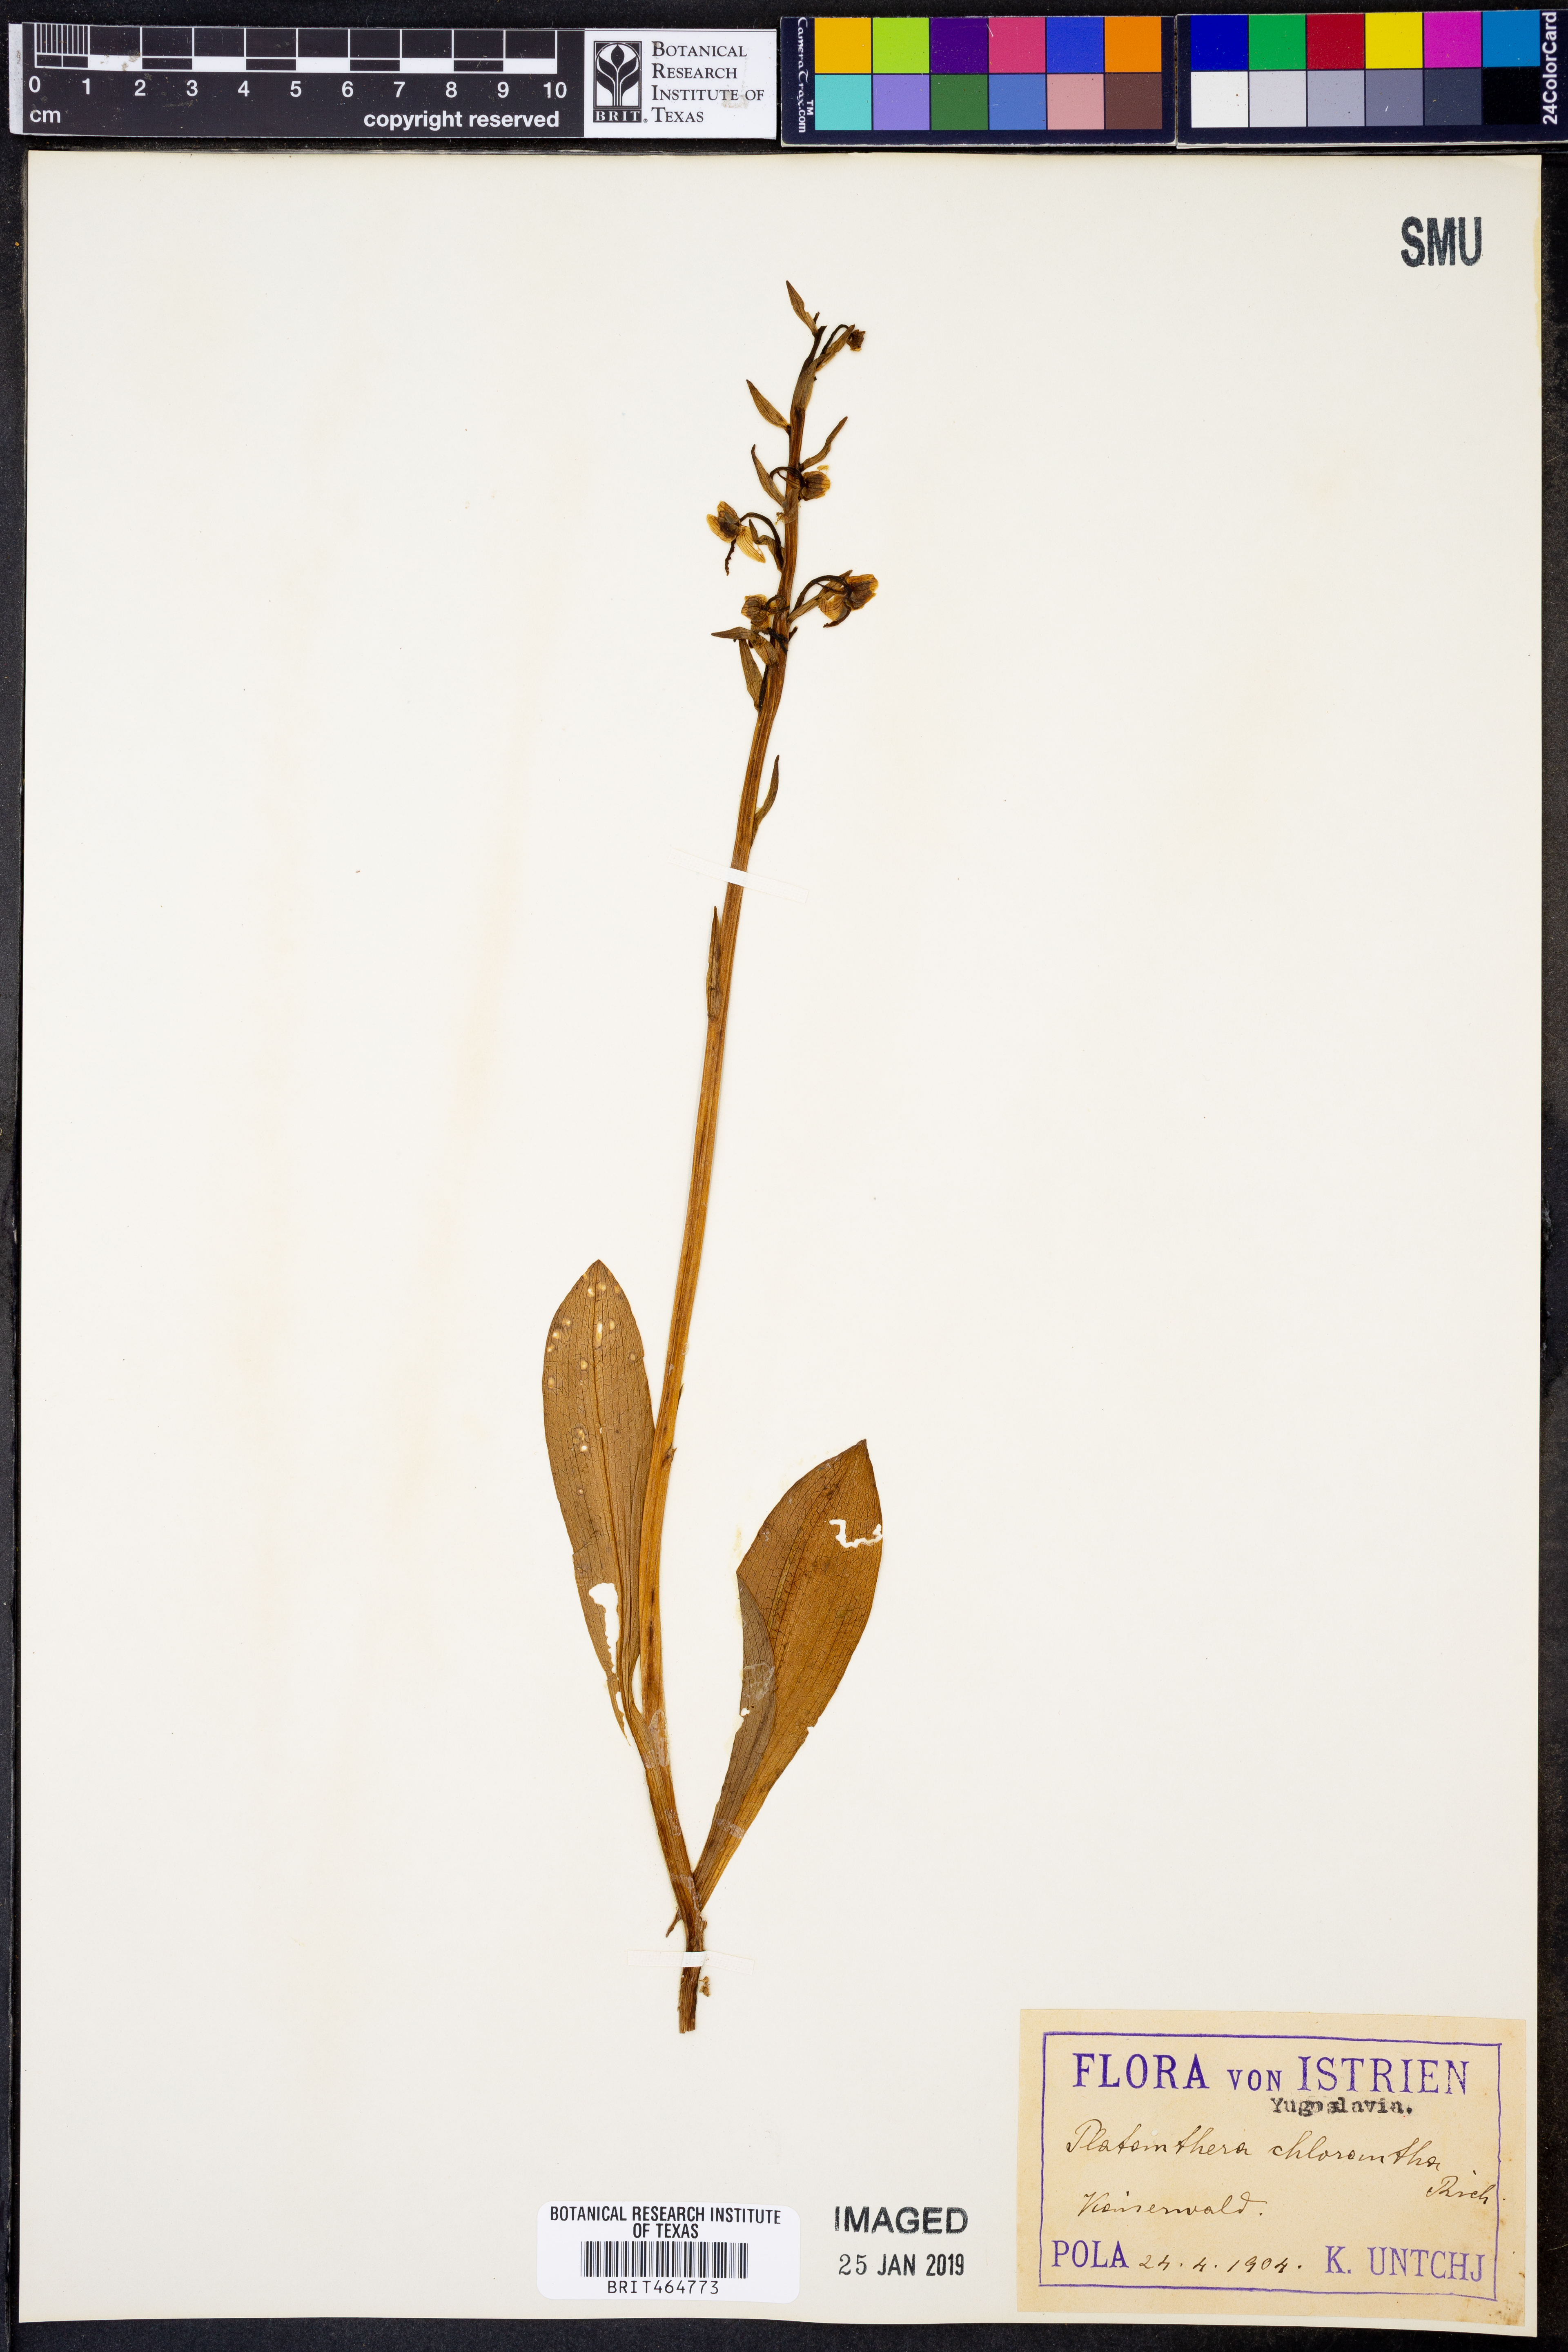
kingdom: Plantae
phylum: Tracheophyta
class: Liliopsida
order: Asparagales
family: Orchidaceae
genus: Platanthera
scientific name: Platanthera chlorantha
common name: Greater butterfly-orchid
